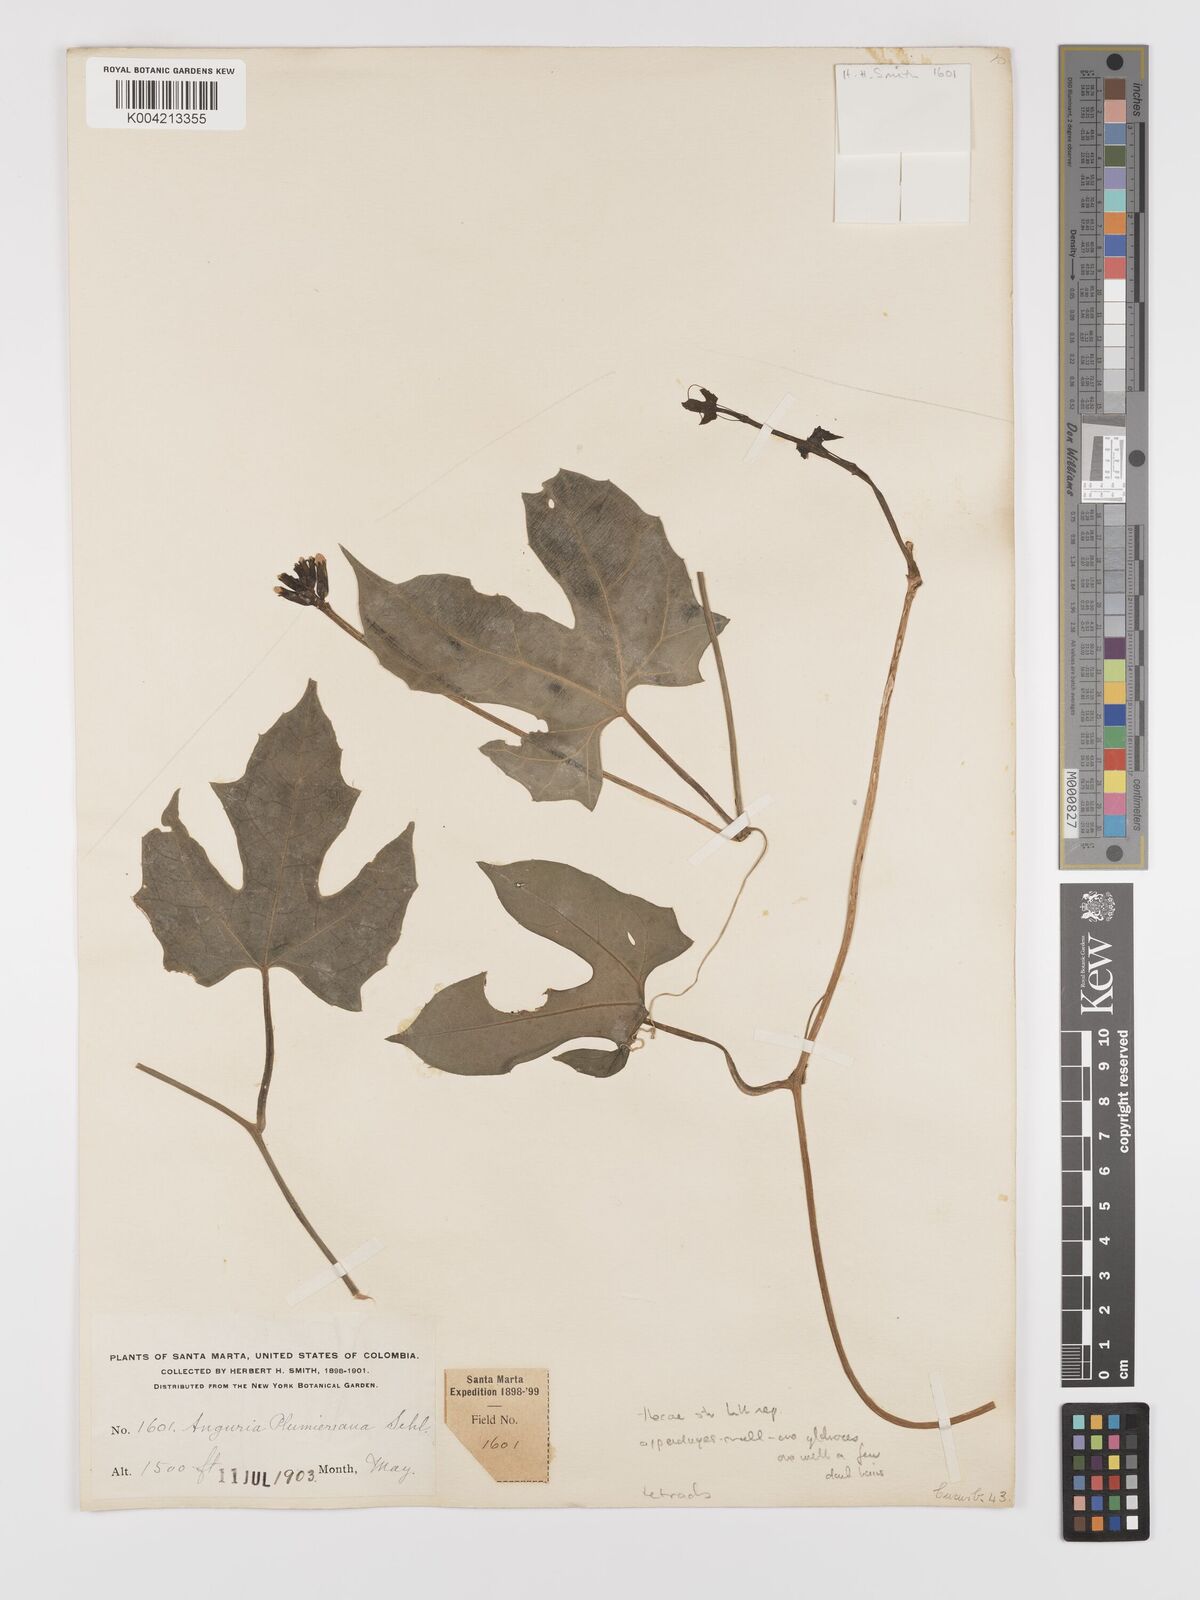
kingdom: Plantae
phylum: Tracheophyta
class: Magnoliopsida
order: Cucurbitales
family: Cucurbitaceae
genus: Psiguria
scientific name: Psiguria warscewiczii
